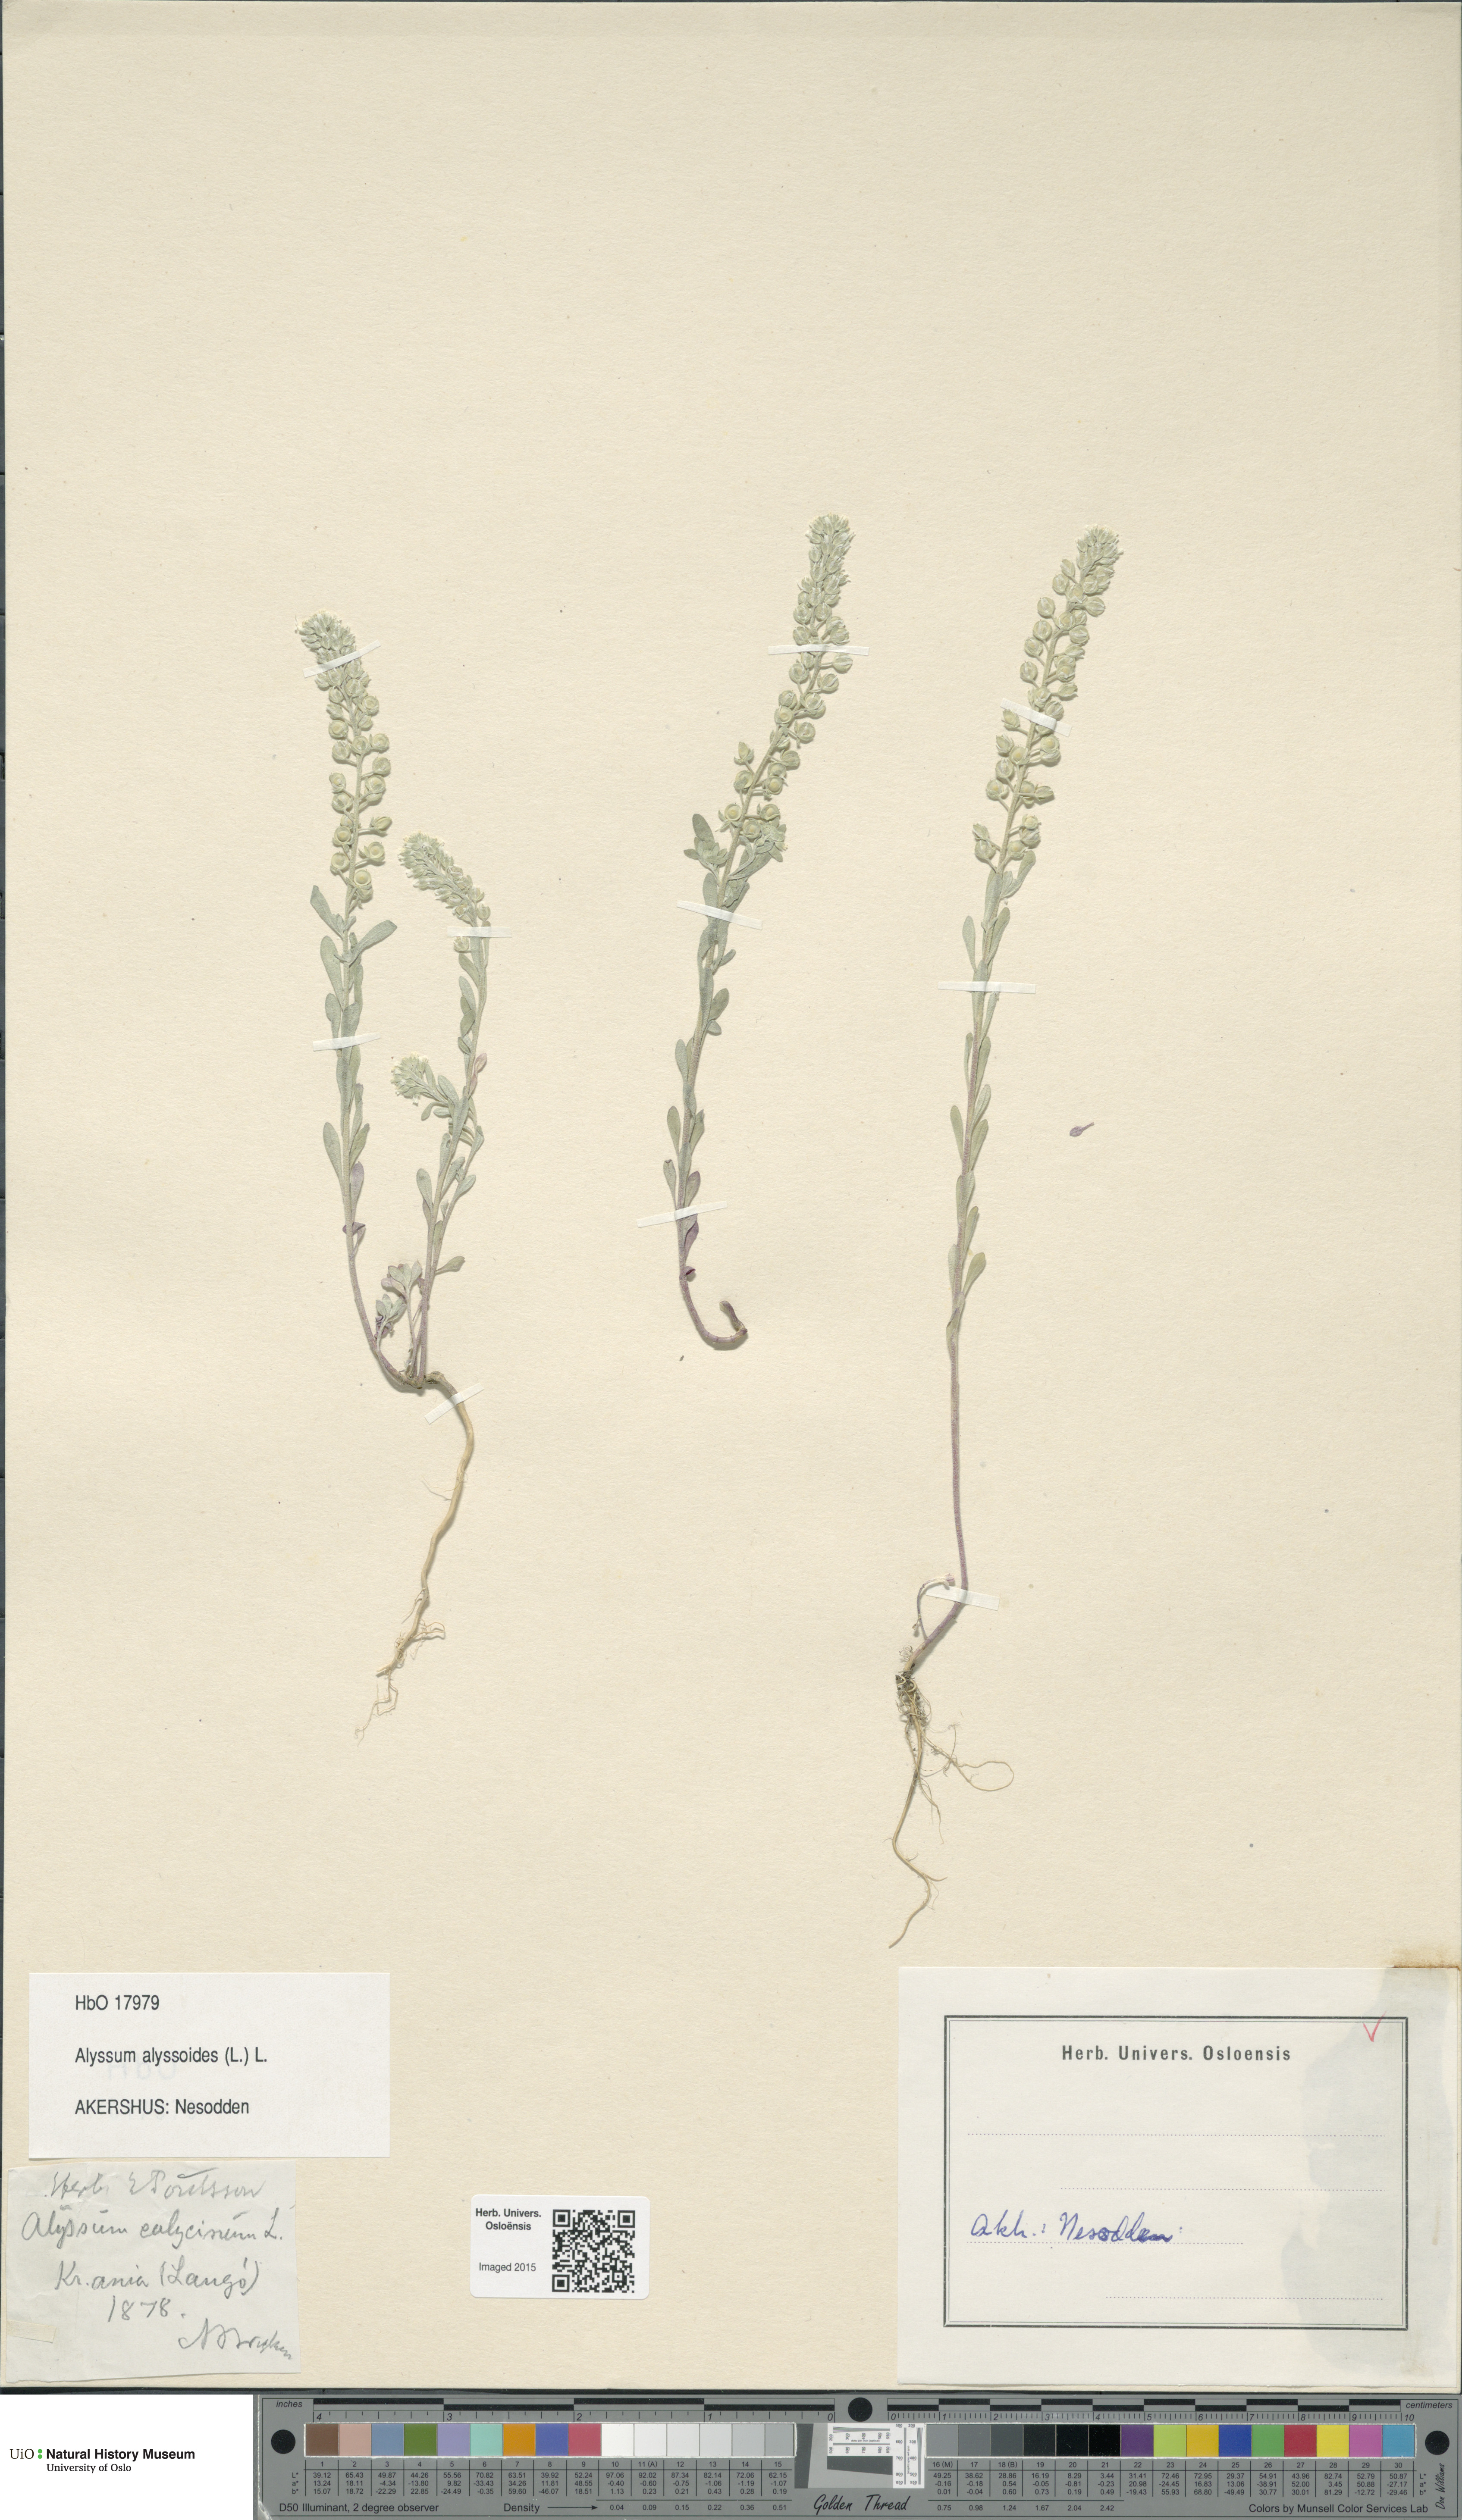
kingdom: Plantae
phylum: Tracheophyta
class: Magnoliopsida
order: Brassicales
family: Brassicaceae
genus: Alyssum
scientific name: Alyssum alyssoides
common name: Small alison
